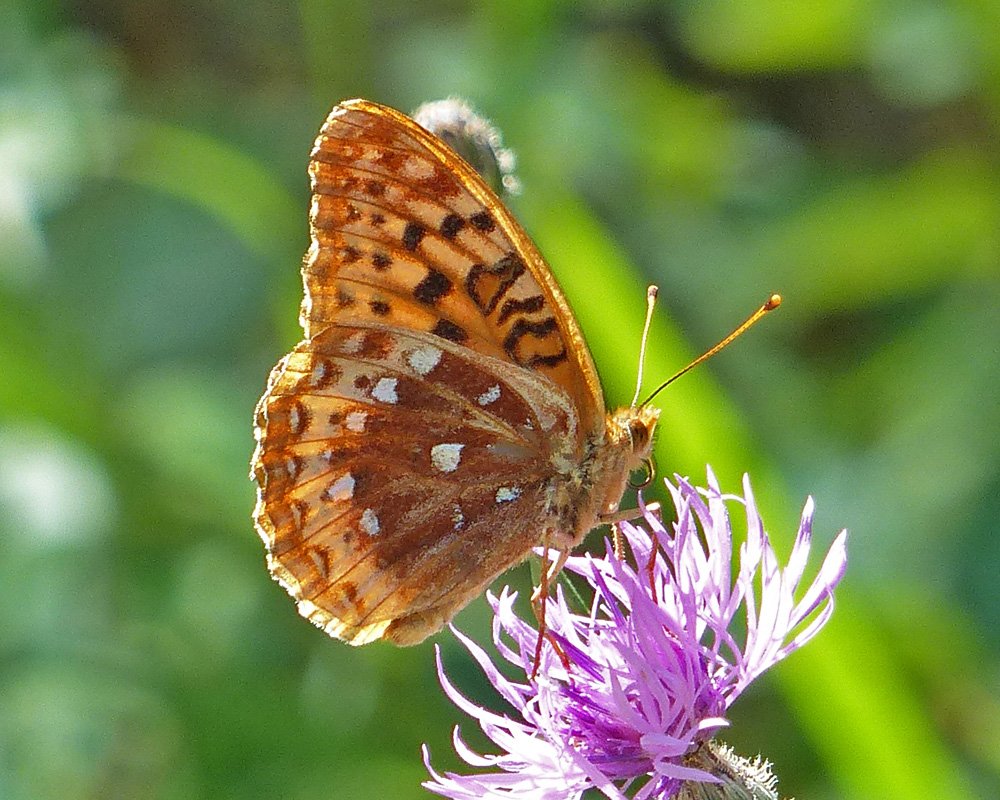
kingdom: Animalia
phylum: Arthropoda
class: Insecta
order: Lepidoptera
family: Nymphalidae
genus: Speyeria
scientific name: Speyeria cybele
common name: Great Spangled Fritillary
